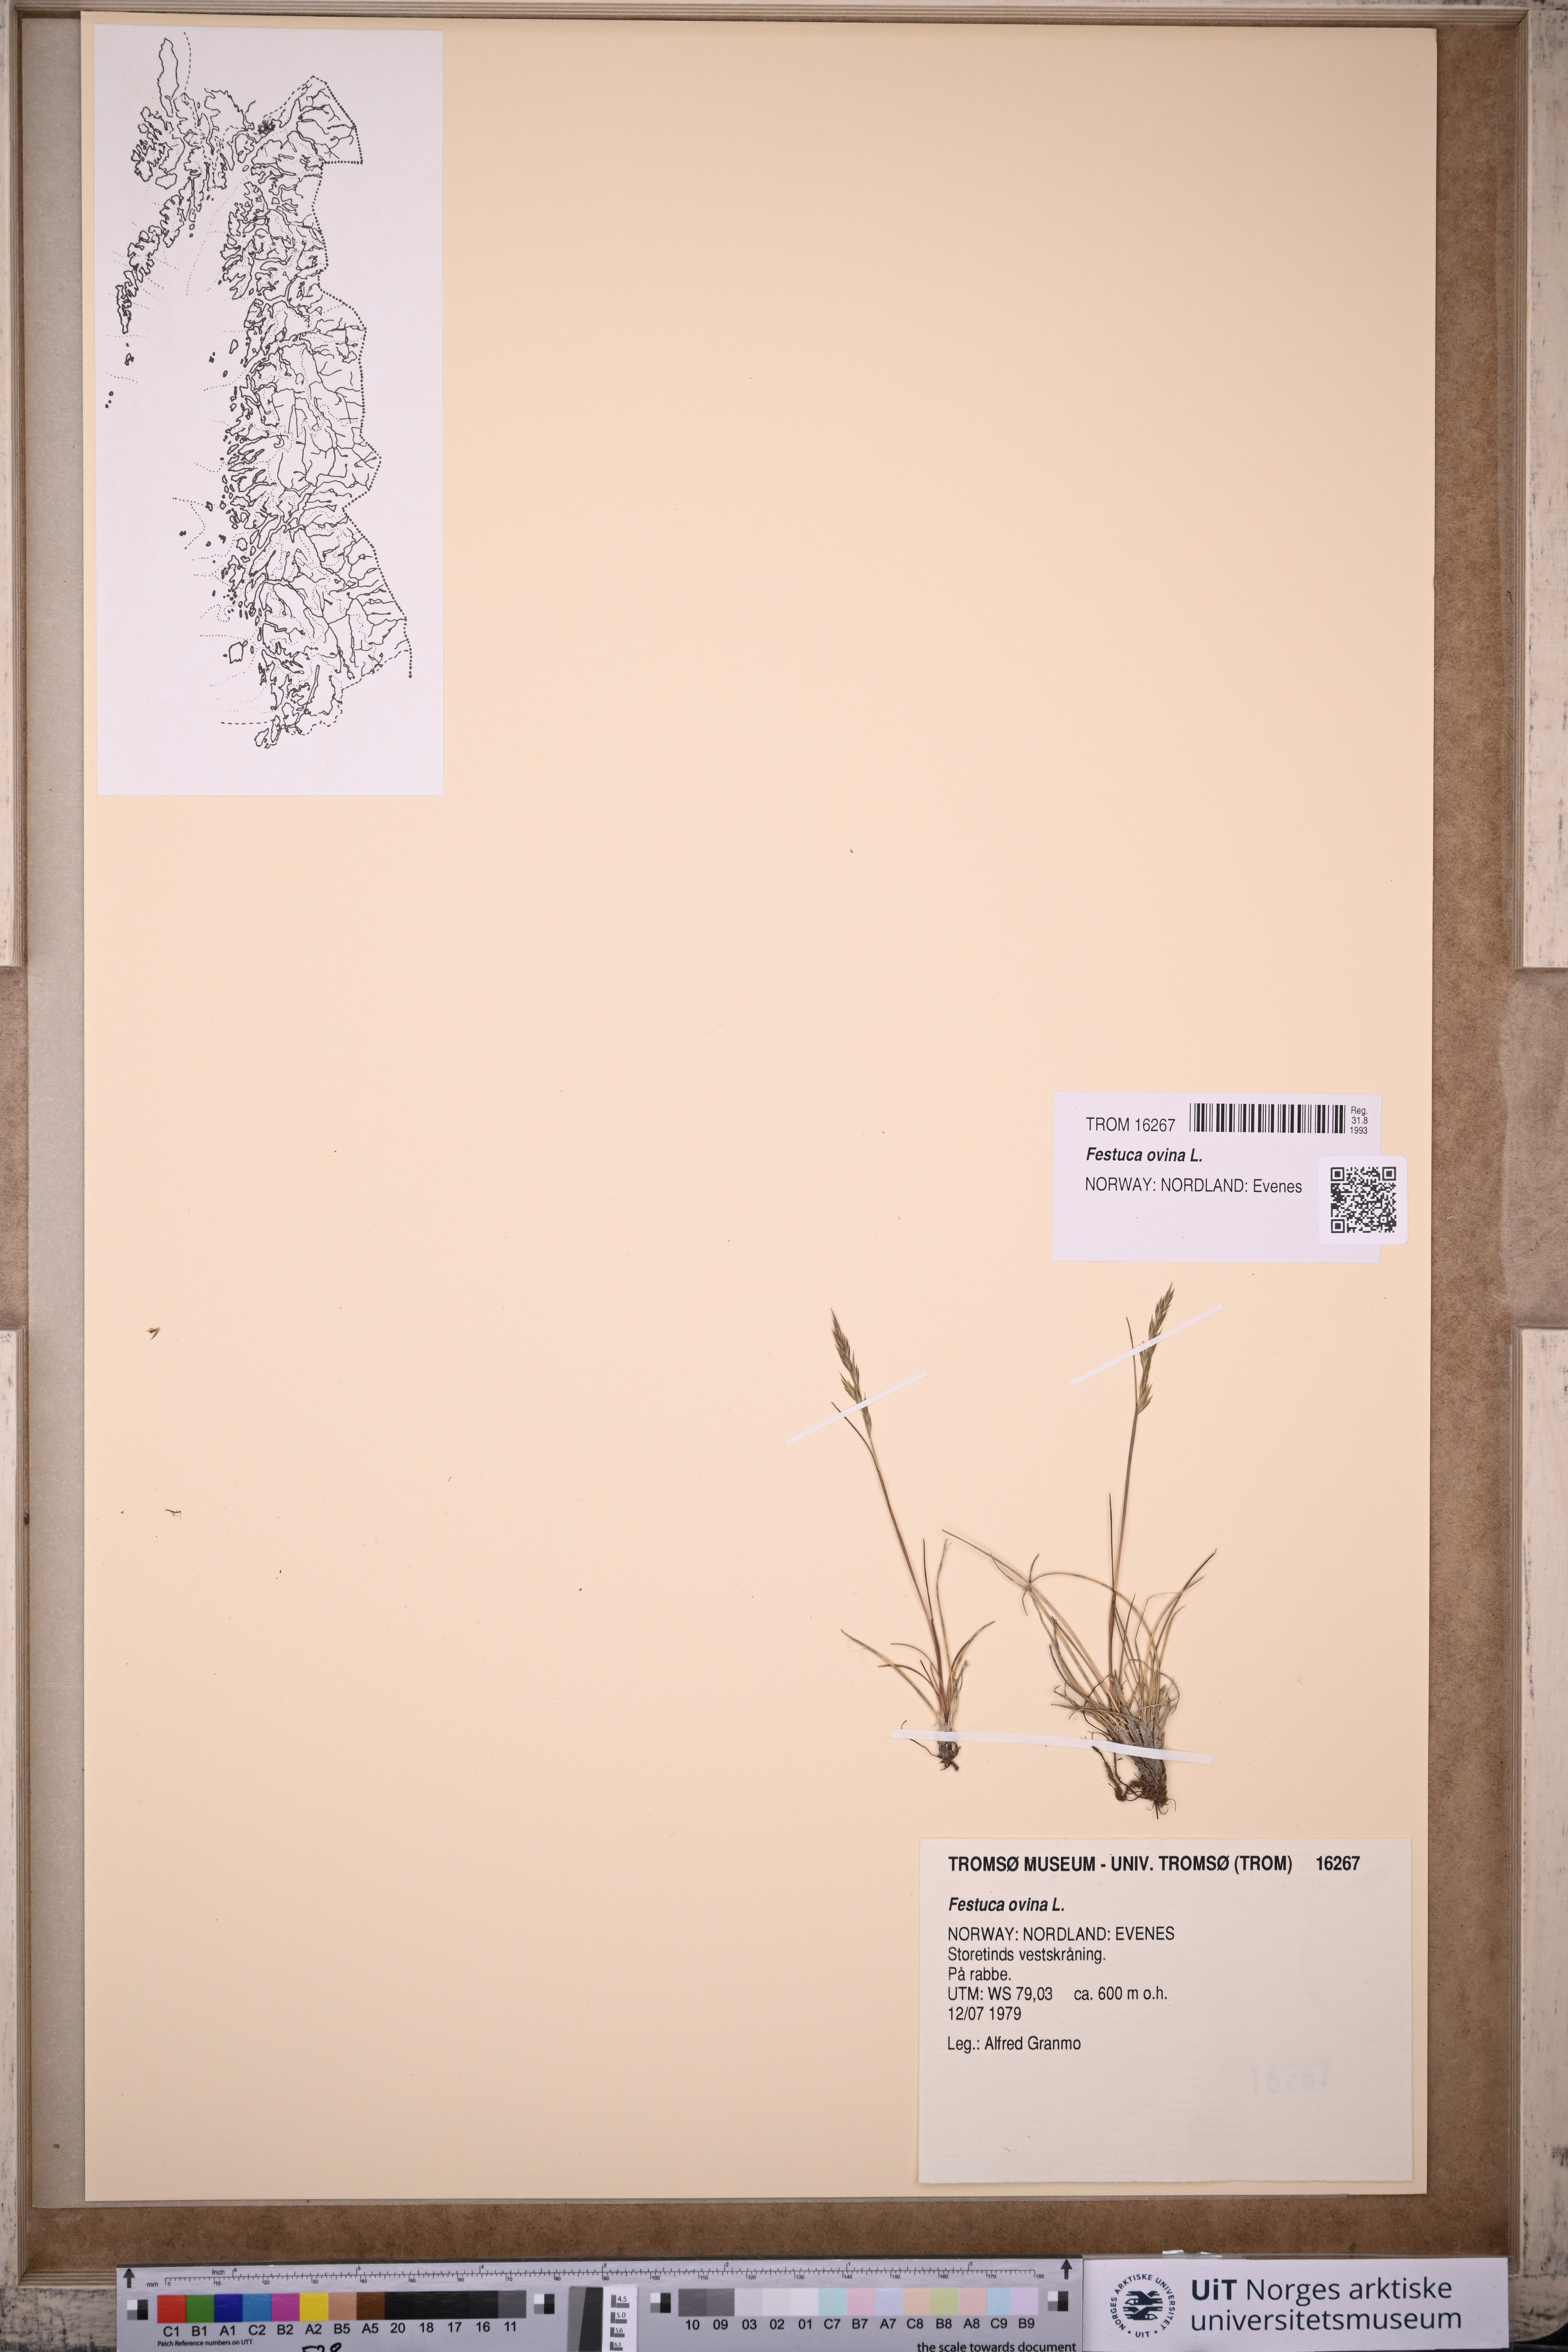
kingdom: Plantae
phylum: Tracheophyta
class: Liliopsida
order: Poales
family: Poaceae
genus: Festuca
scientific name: Festuca ovina
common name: Sheep fescue
